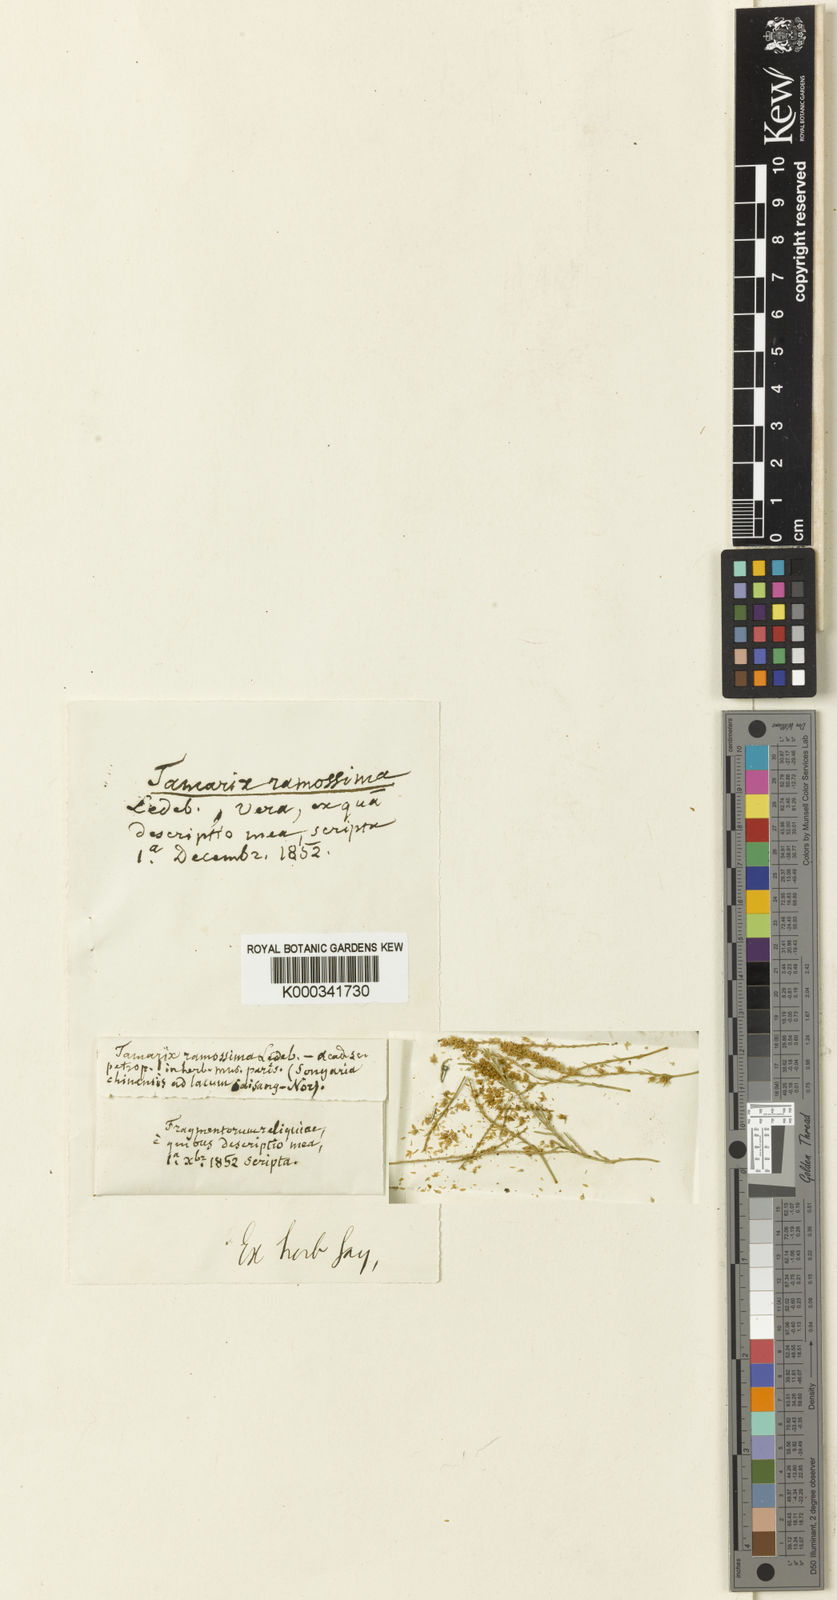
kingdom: Plantae
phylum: Tracheophyta
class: Magnoliopsida
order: Caryophyllales
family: Tamaricaceae
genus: Tamarix
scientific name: Tamarix ramosissima
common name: Pink tamarisk
